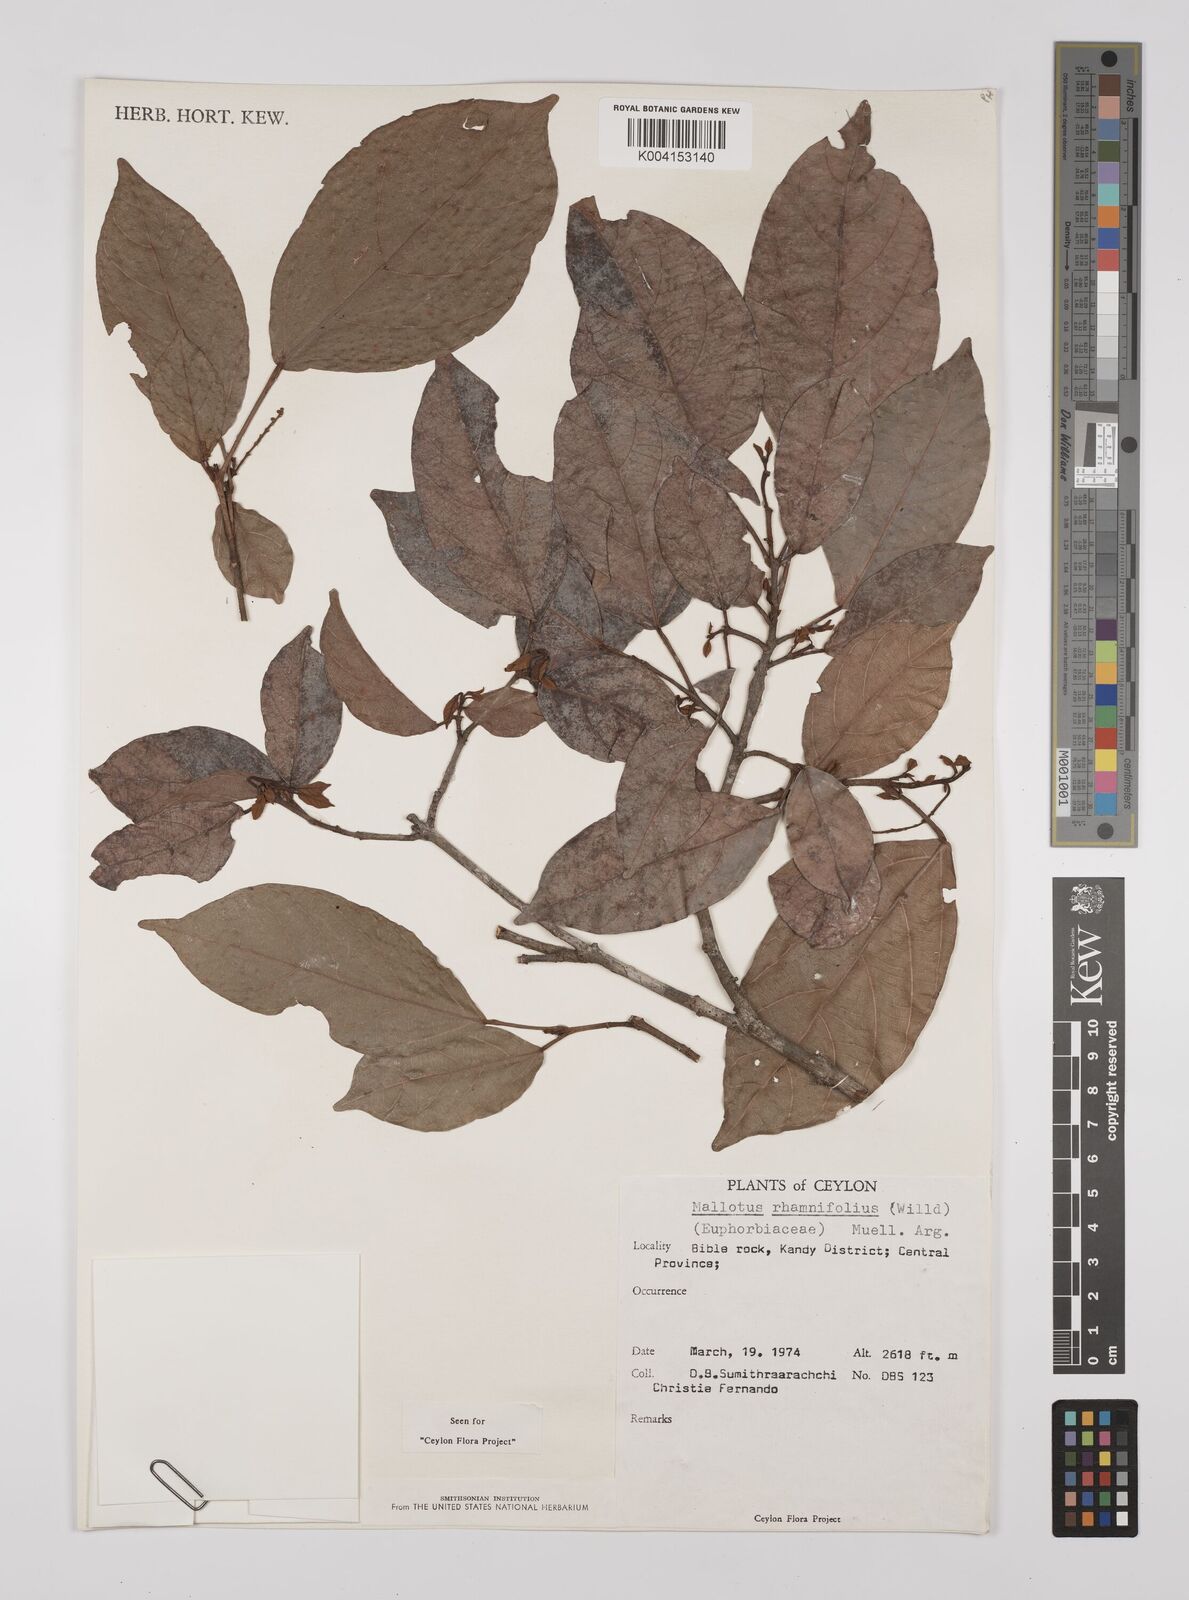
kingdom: Plantae
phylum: Tracheophyta
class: Magnoliopsida
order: Malpighiales
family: Euphorbiaceae
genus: Mallotus
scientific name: Mallotus rhamnifolius
